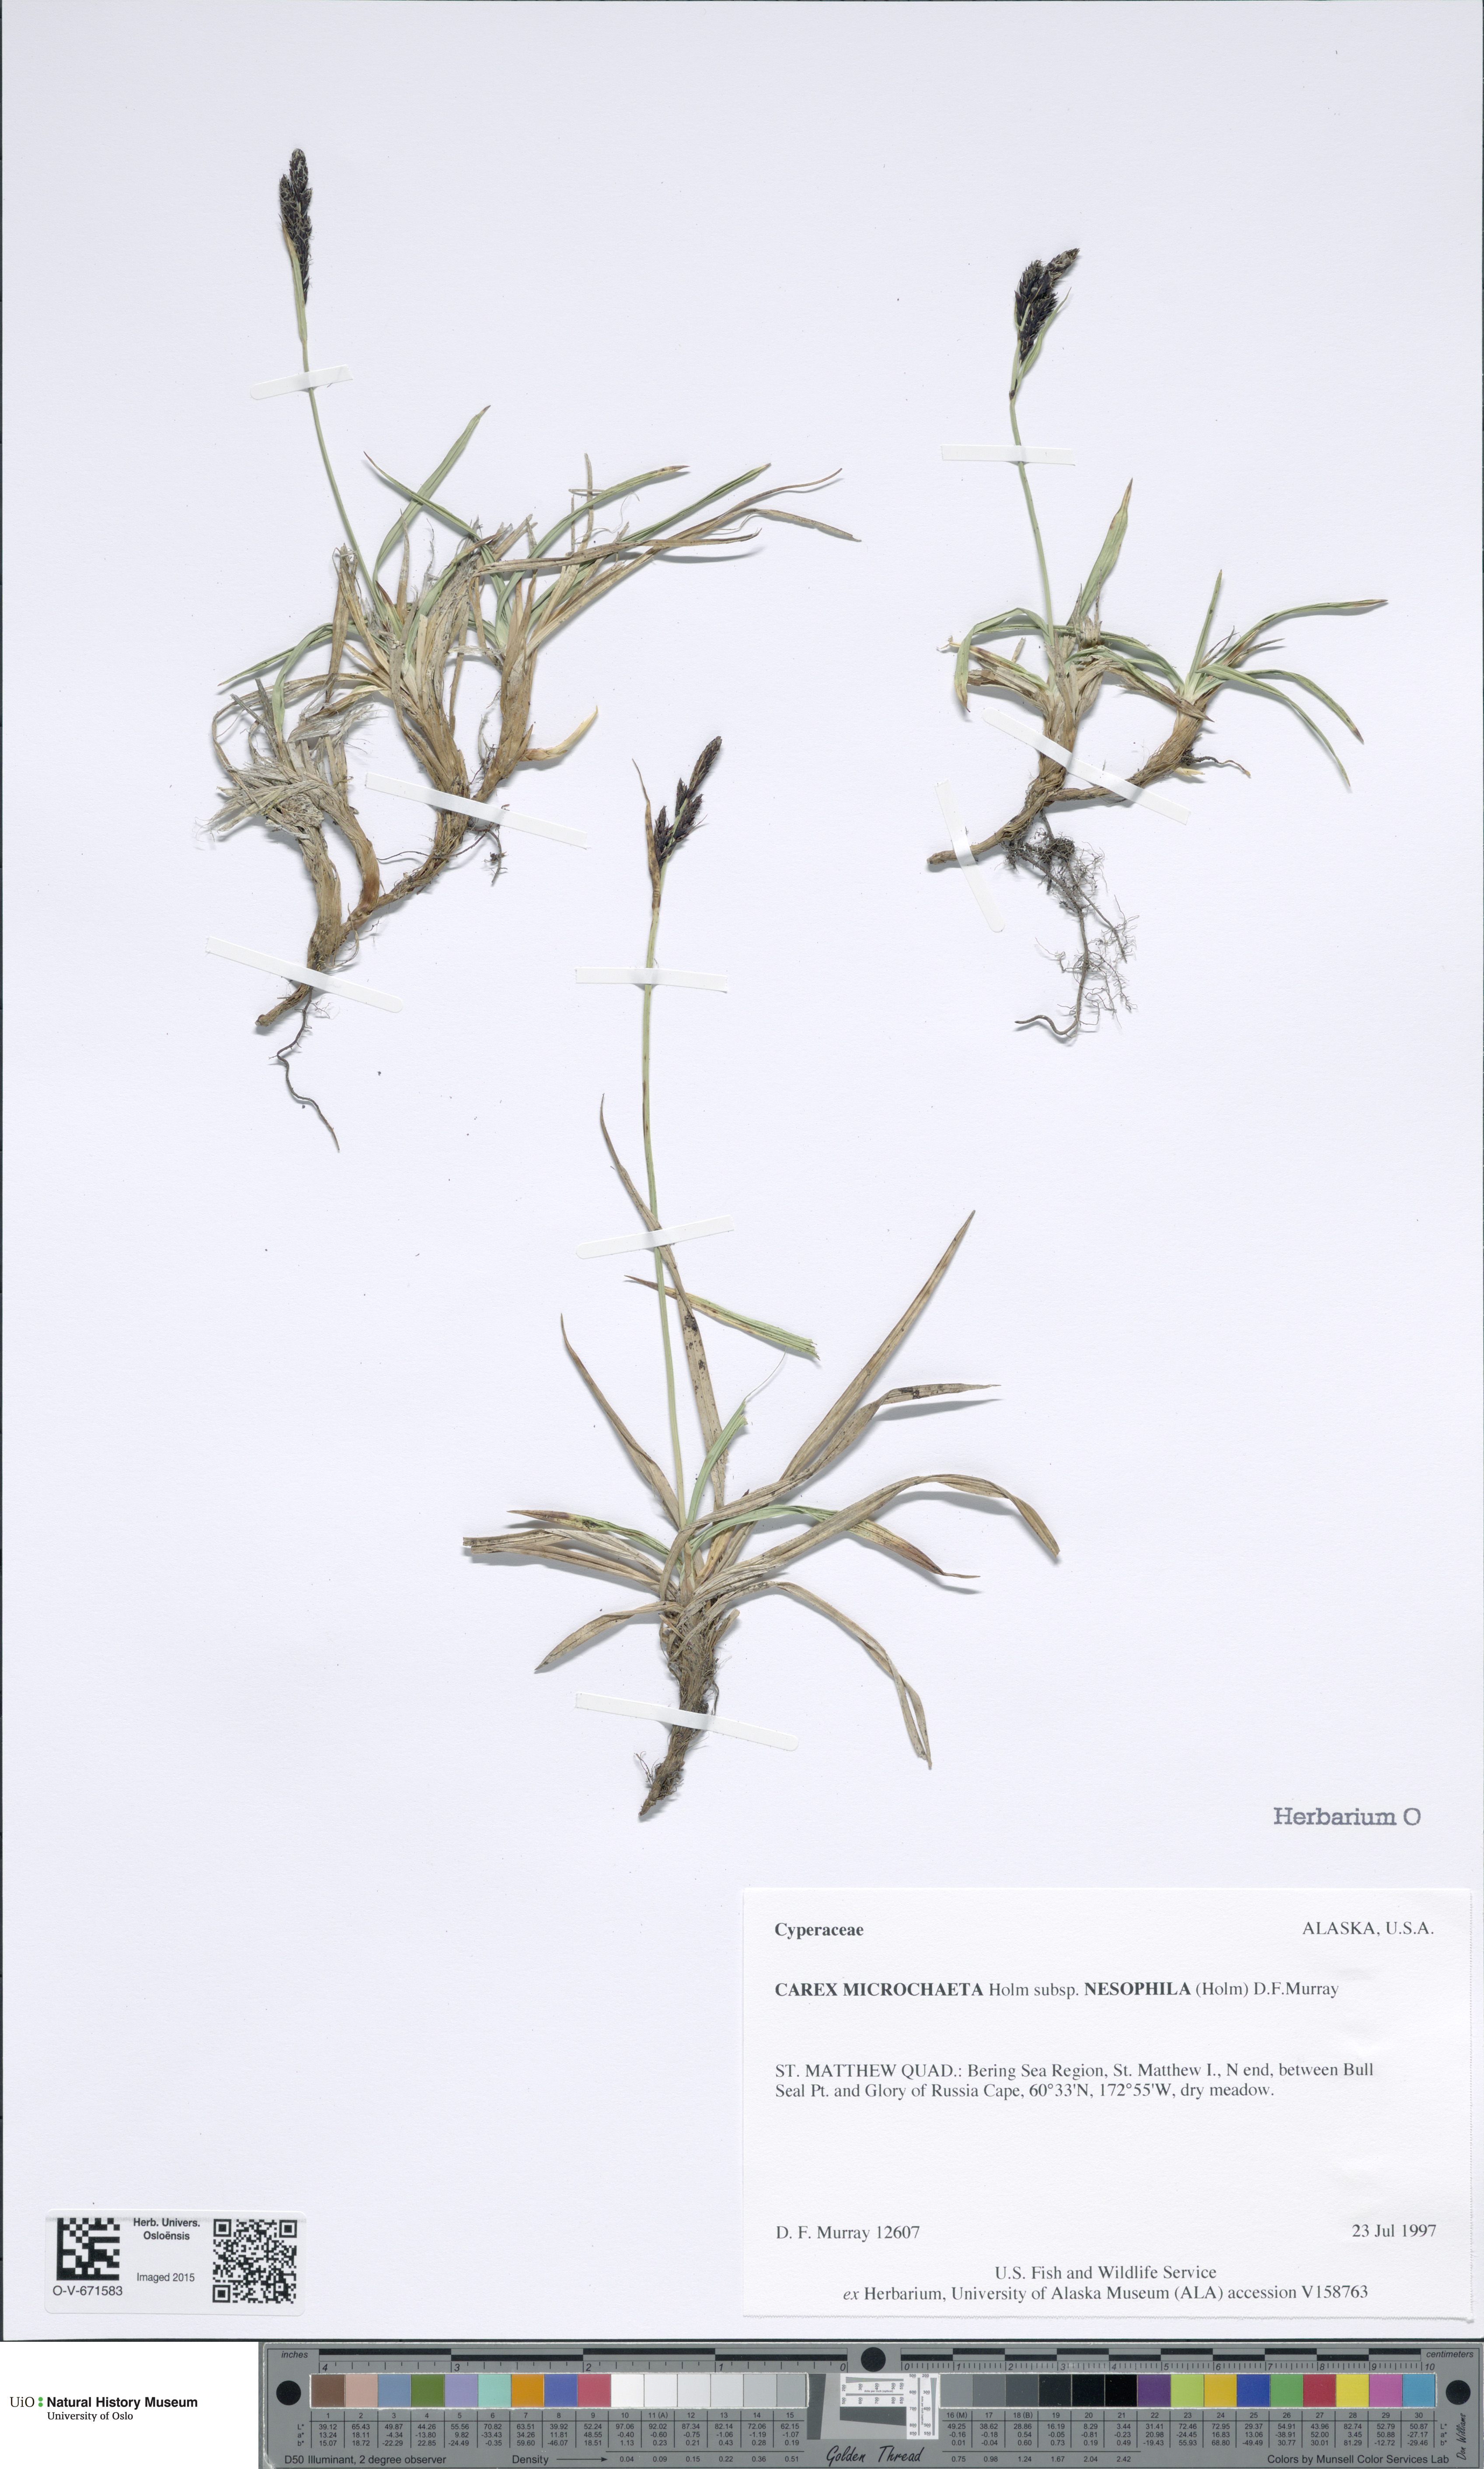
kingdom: Plantae
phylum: Tracheophyta
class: Liliopsida
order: Poales
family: Cyperaceae
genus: Carex
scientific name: Carex microchaeta
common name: Bering sea sedge
